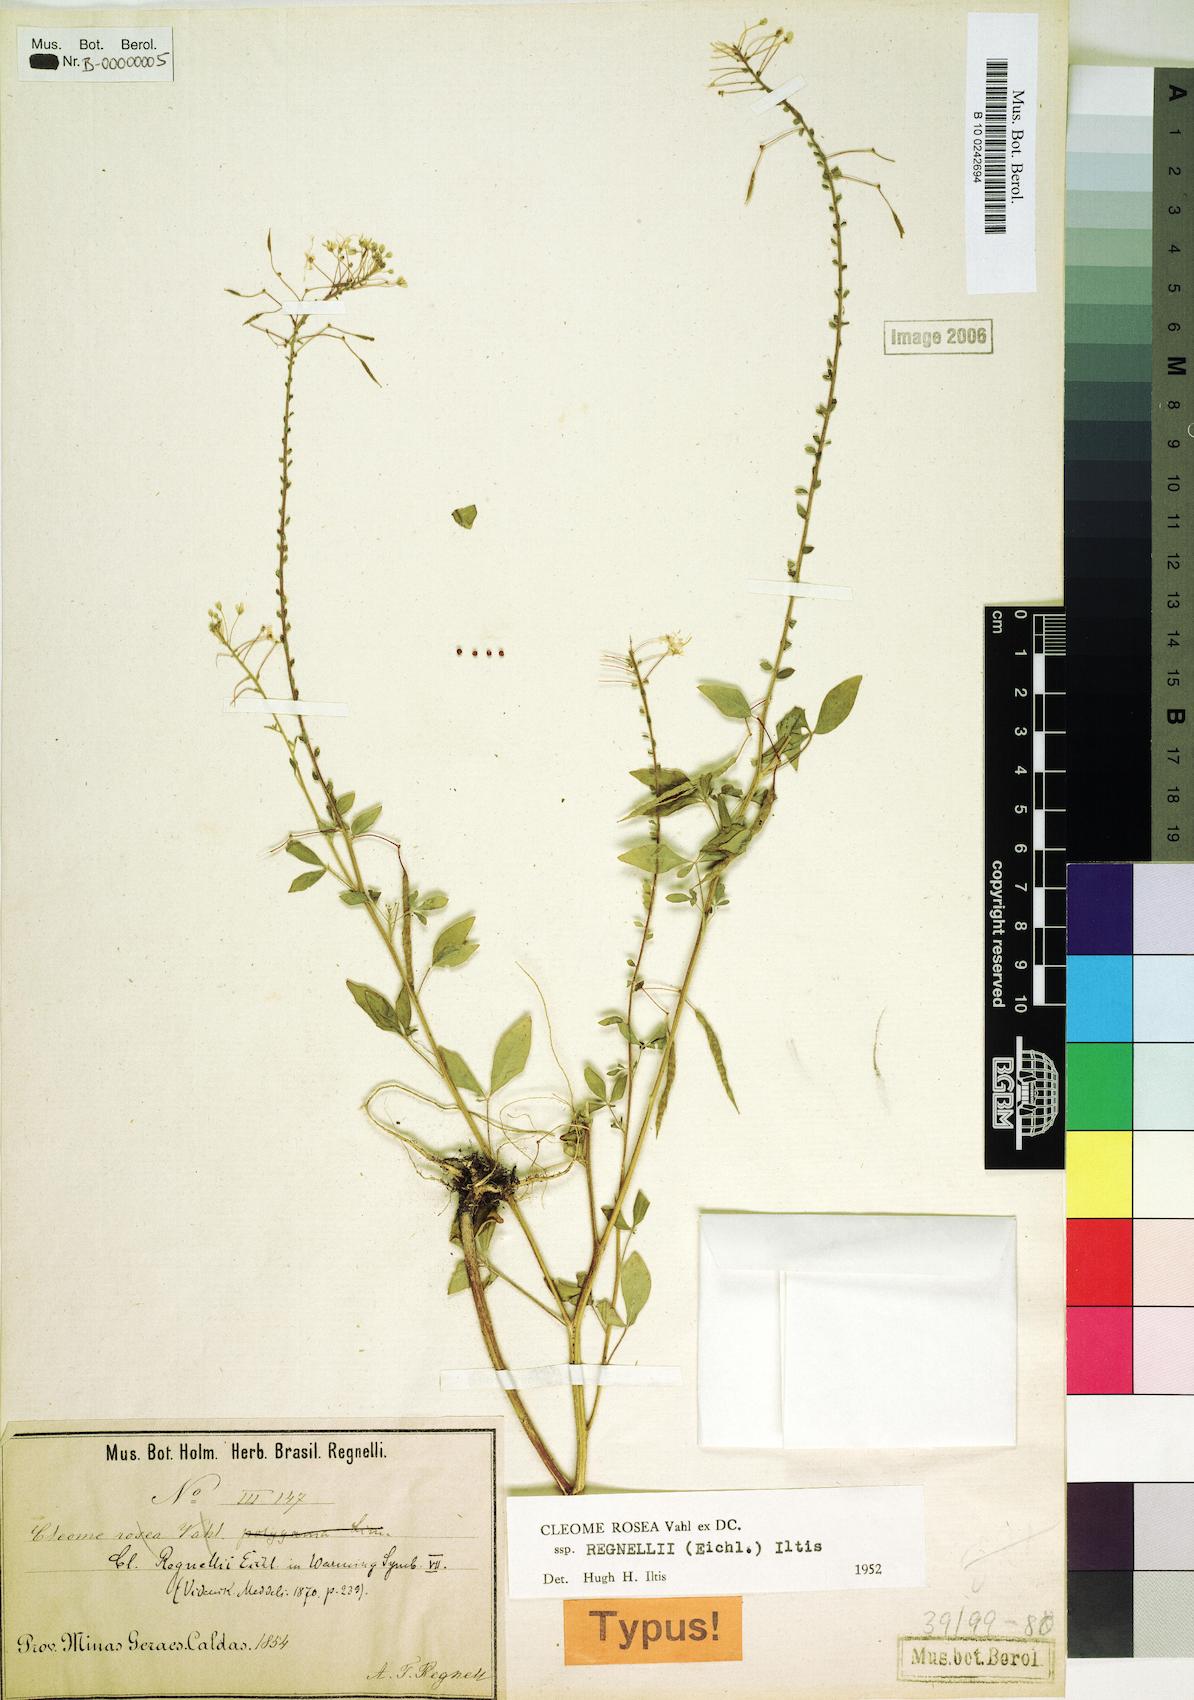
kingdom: Plantae
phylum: Tracheophyta
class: Magnoliopsida
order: Brassicales
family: Cleomaceae
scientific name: Cleomaceae
